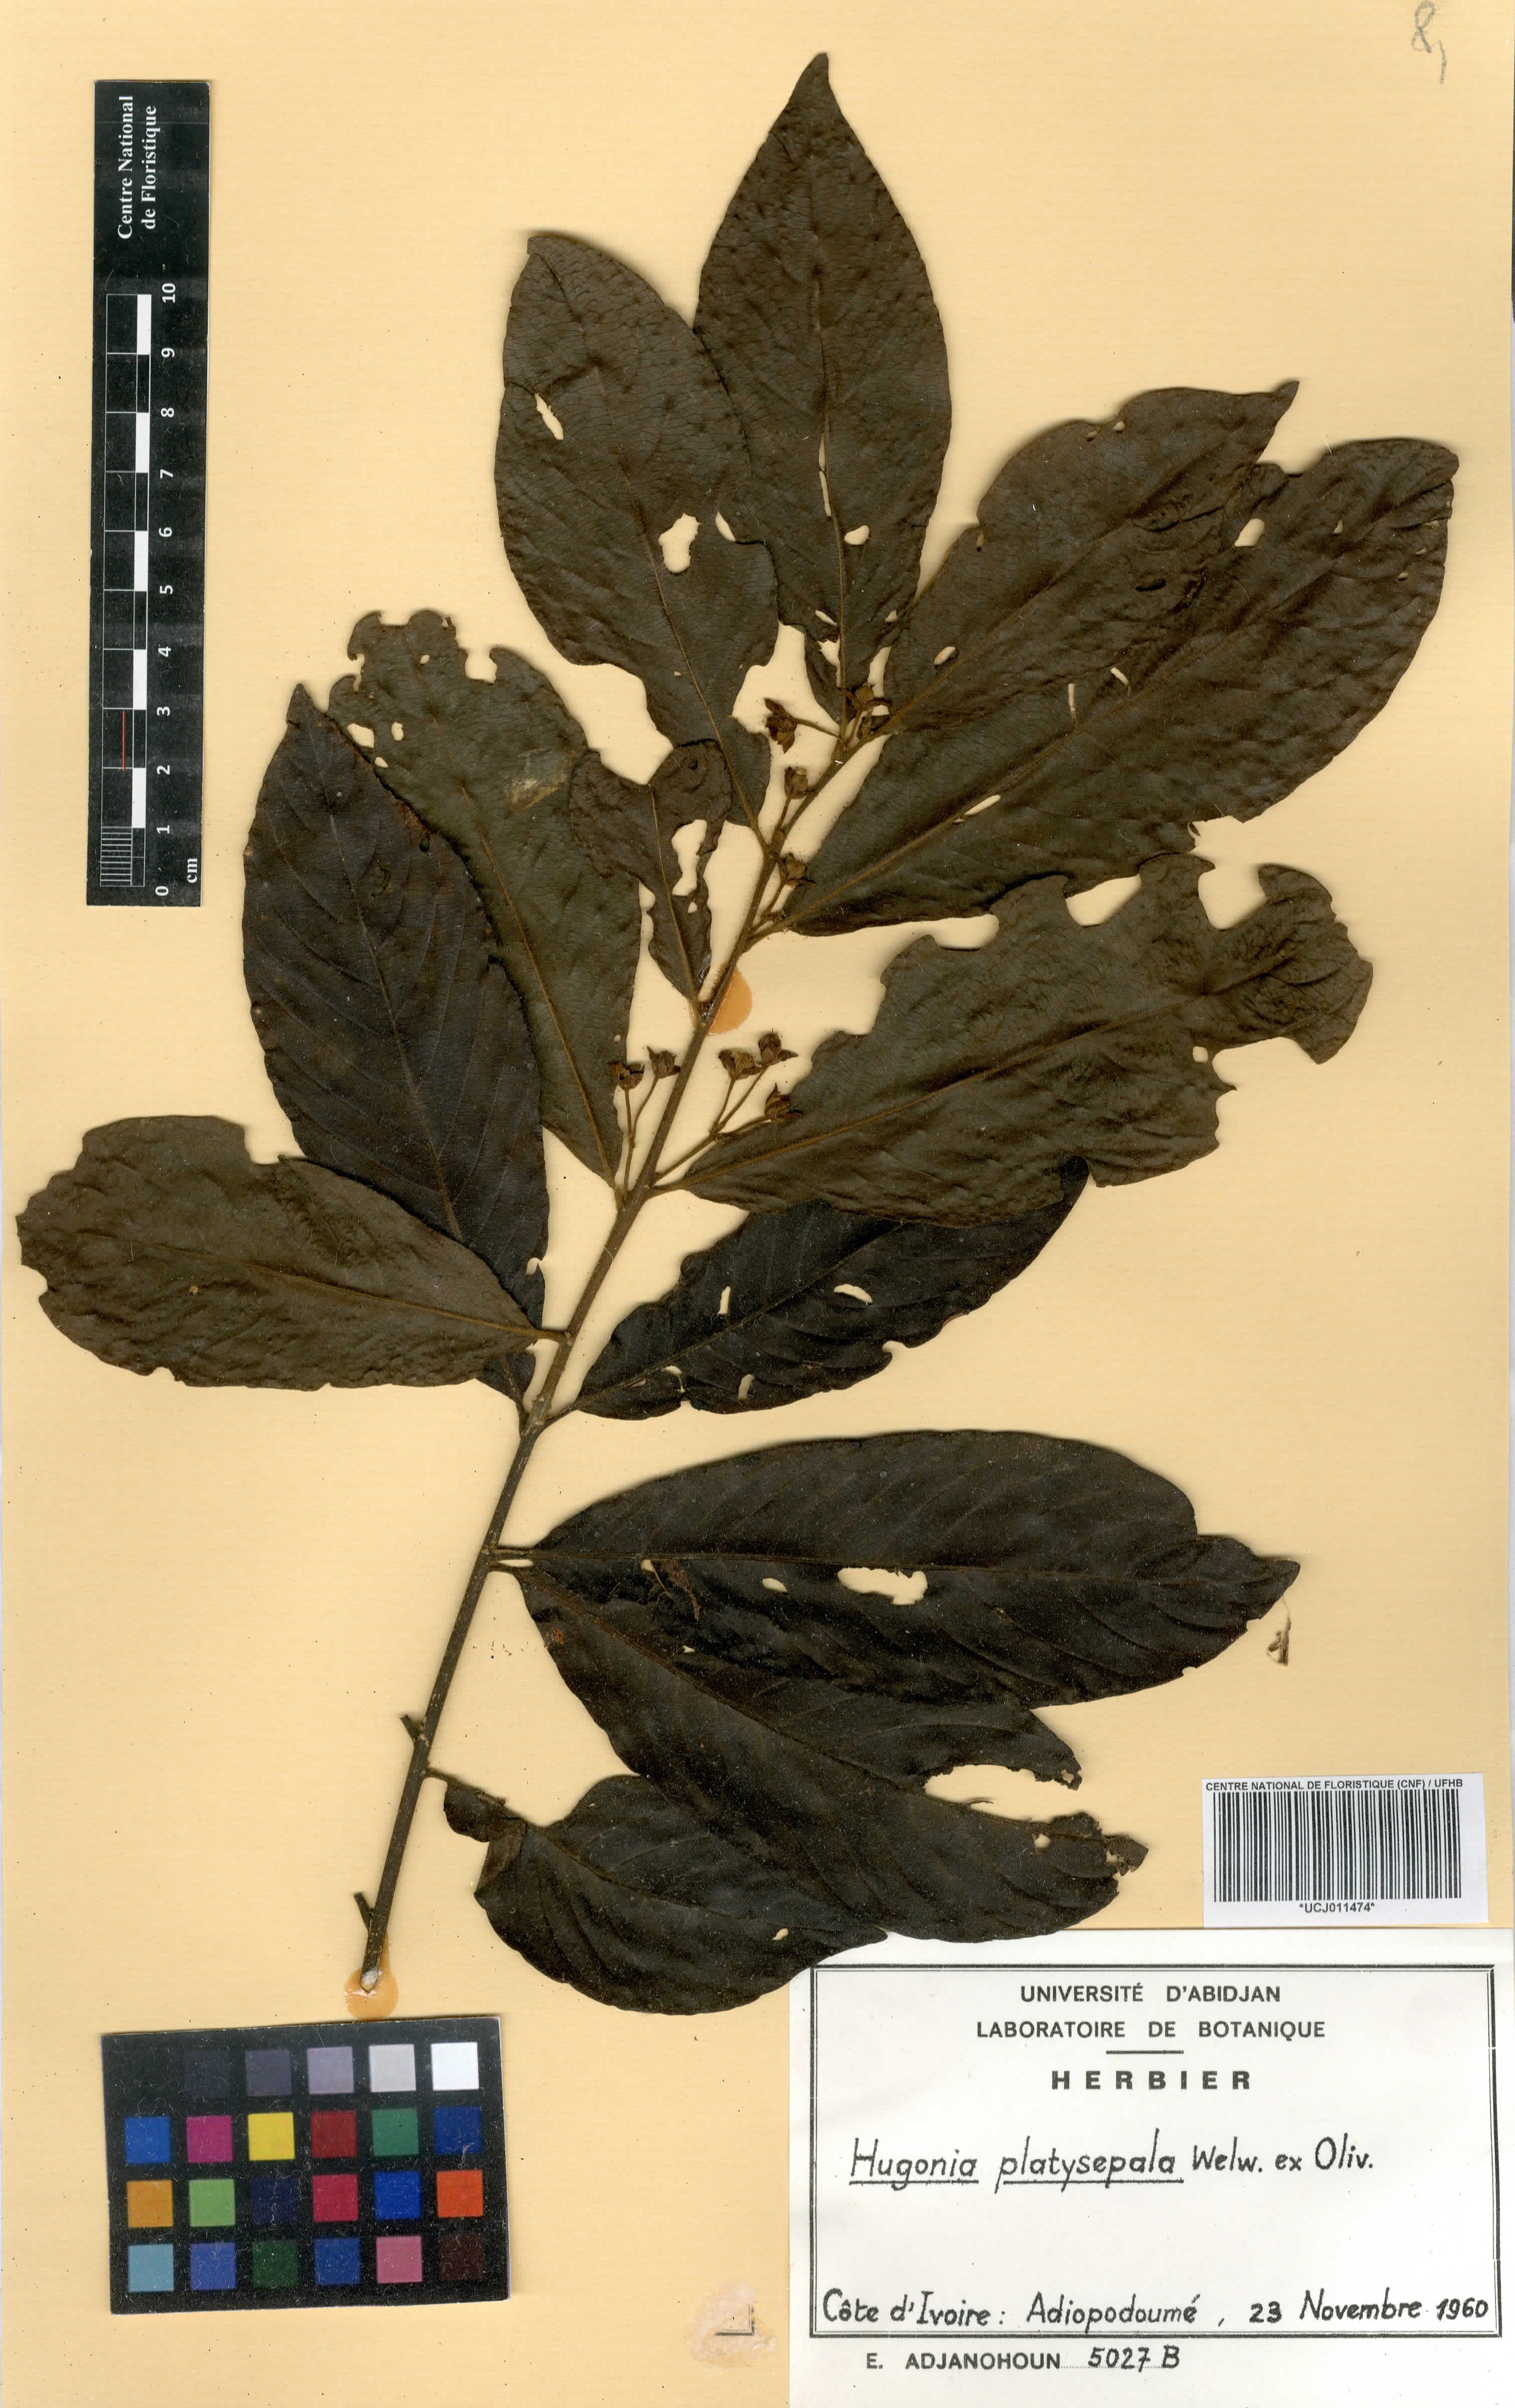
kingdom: Plantae
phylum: Tracheophyta
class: Magnoliopsida
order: Malpighiales
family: Linaceae
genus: Hugonia
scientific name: Hugonia platysepala
